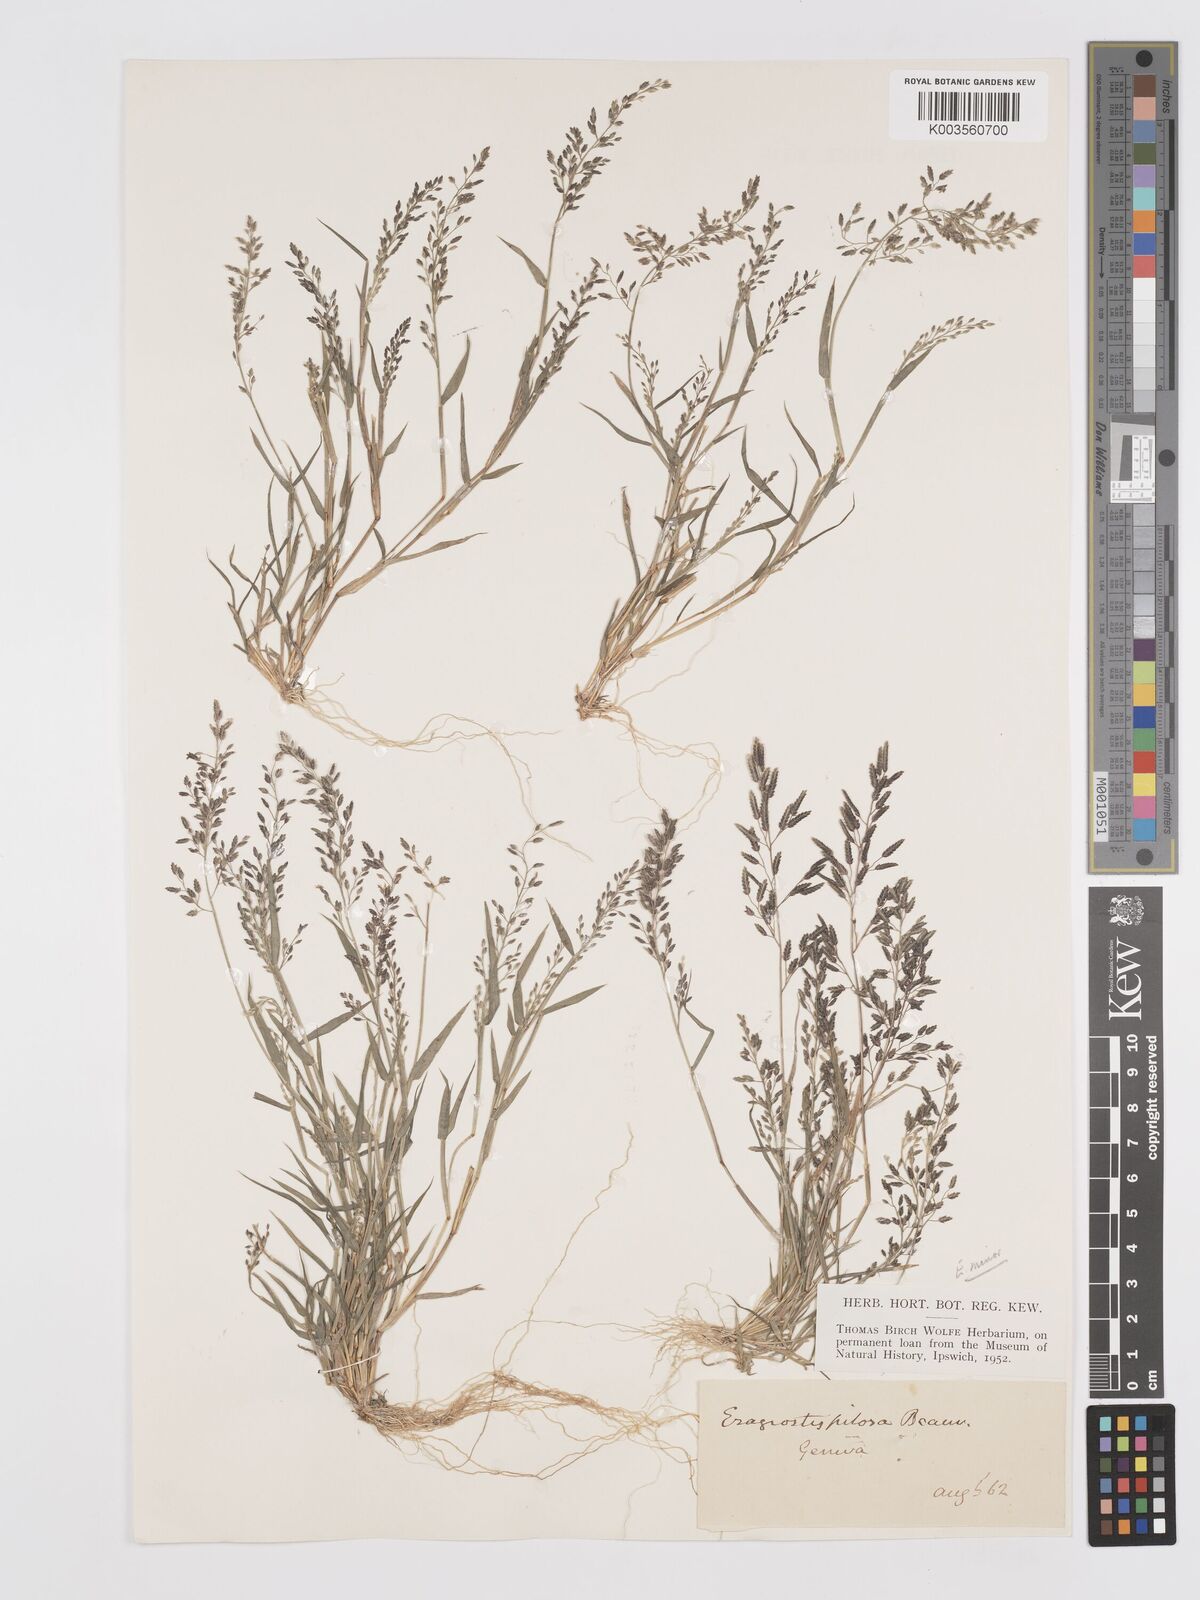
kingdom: Plantae
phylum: Tracheophyta
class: Liliopsida
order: Poales
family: Poaceae
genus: Eragrostis
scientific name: Eragrostis minor
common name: Small love-grass
